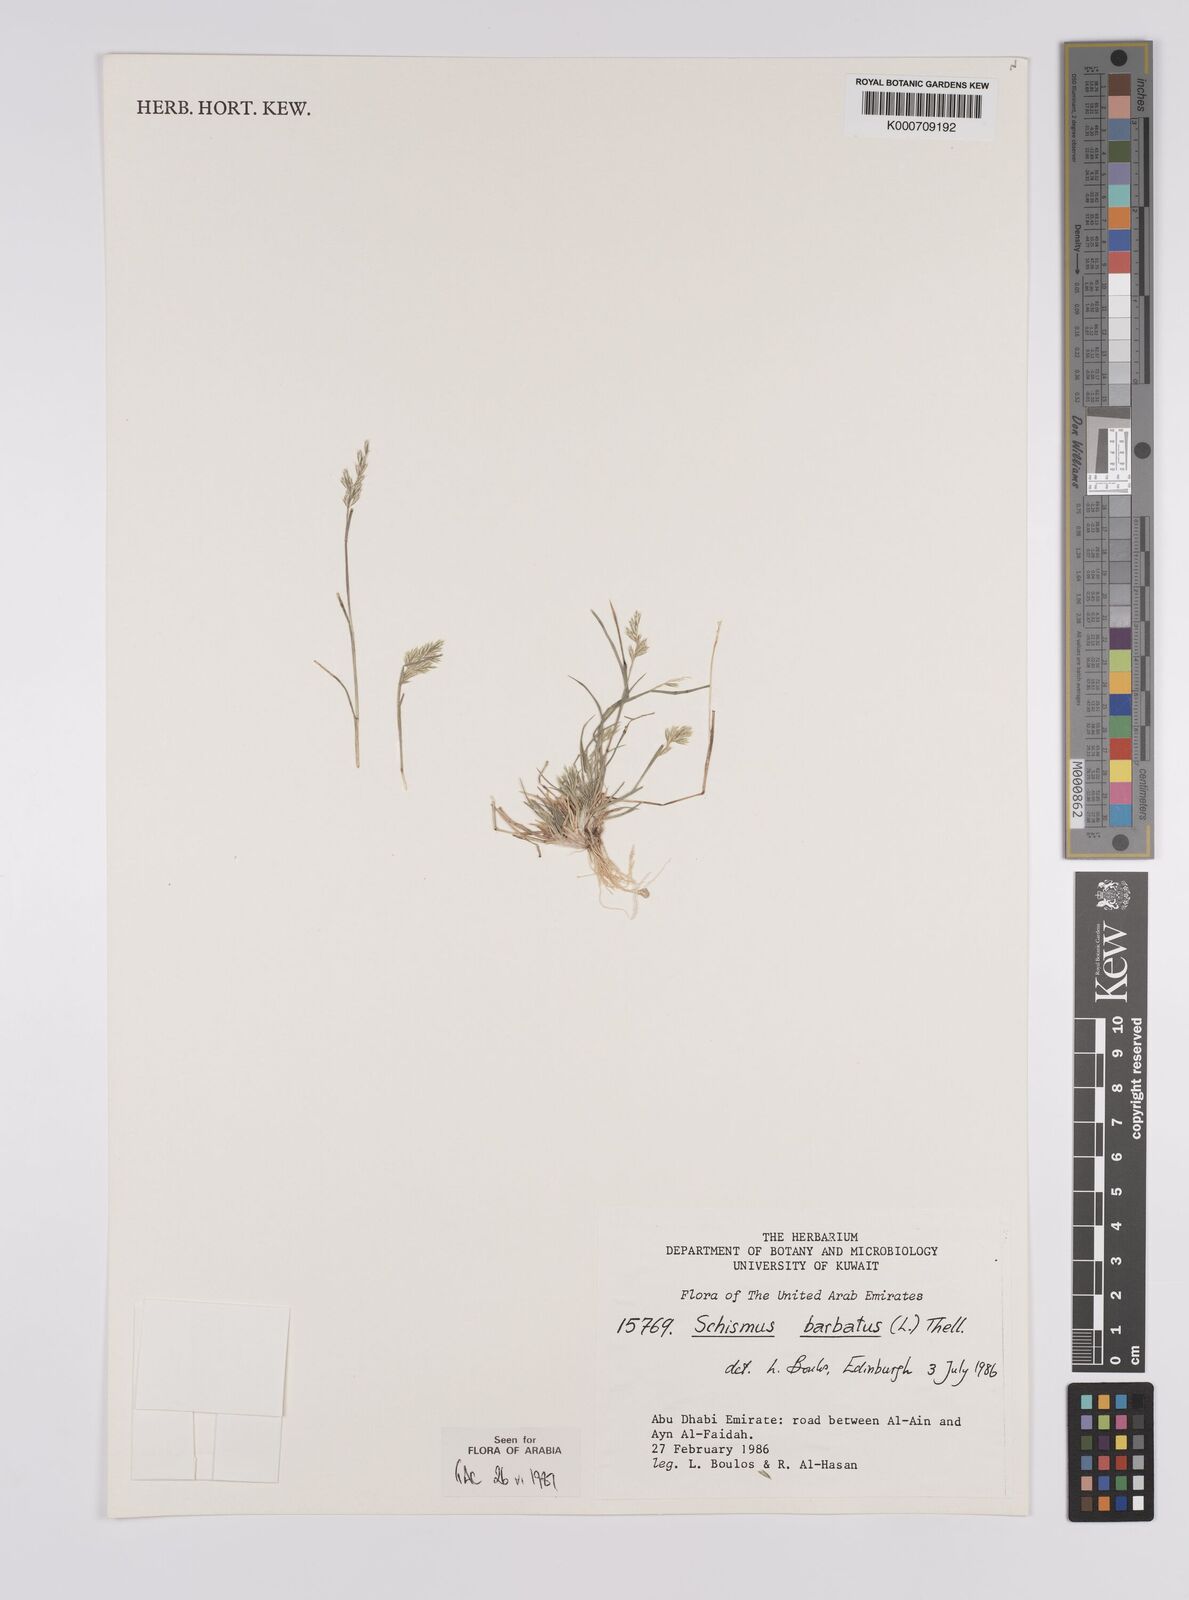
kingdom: Plantae
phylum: Tracheophyta
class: Liliopsida
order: Poales
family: Poaceae
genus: Schismus
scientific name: Schismus barbatus
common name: Kelch-grass
